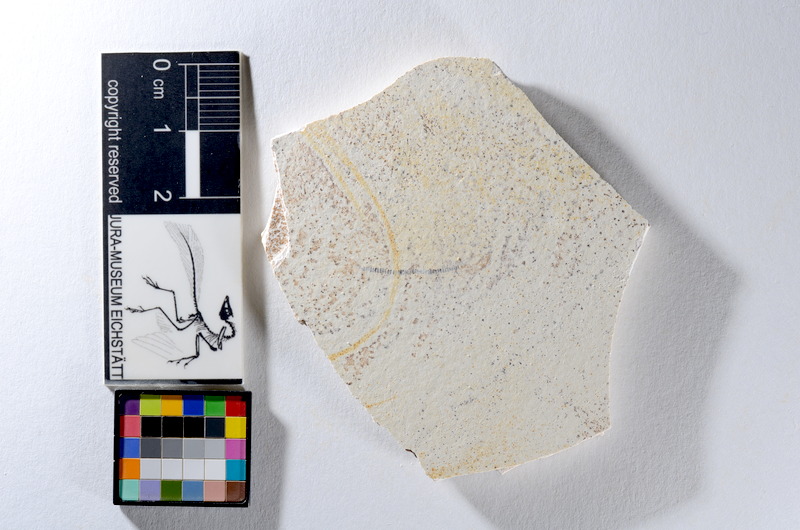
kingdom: Animalia
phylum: Chordata
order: Salmoniformes
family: Orthogonikleithridae
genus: Orthogonikleithrus
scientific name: Orthogonikleithrus hoelli
